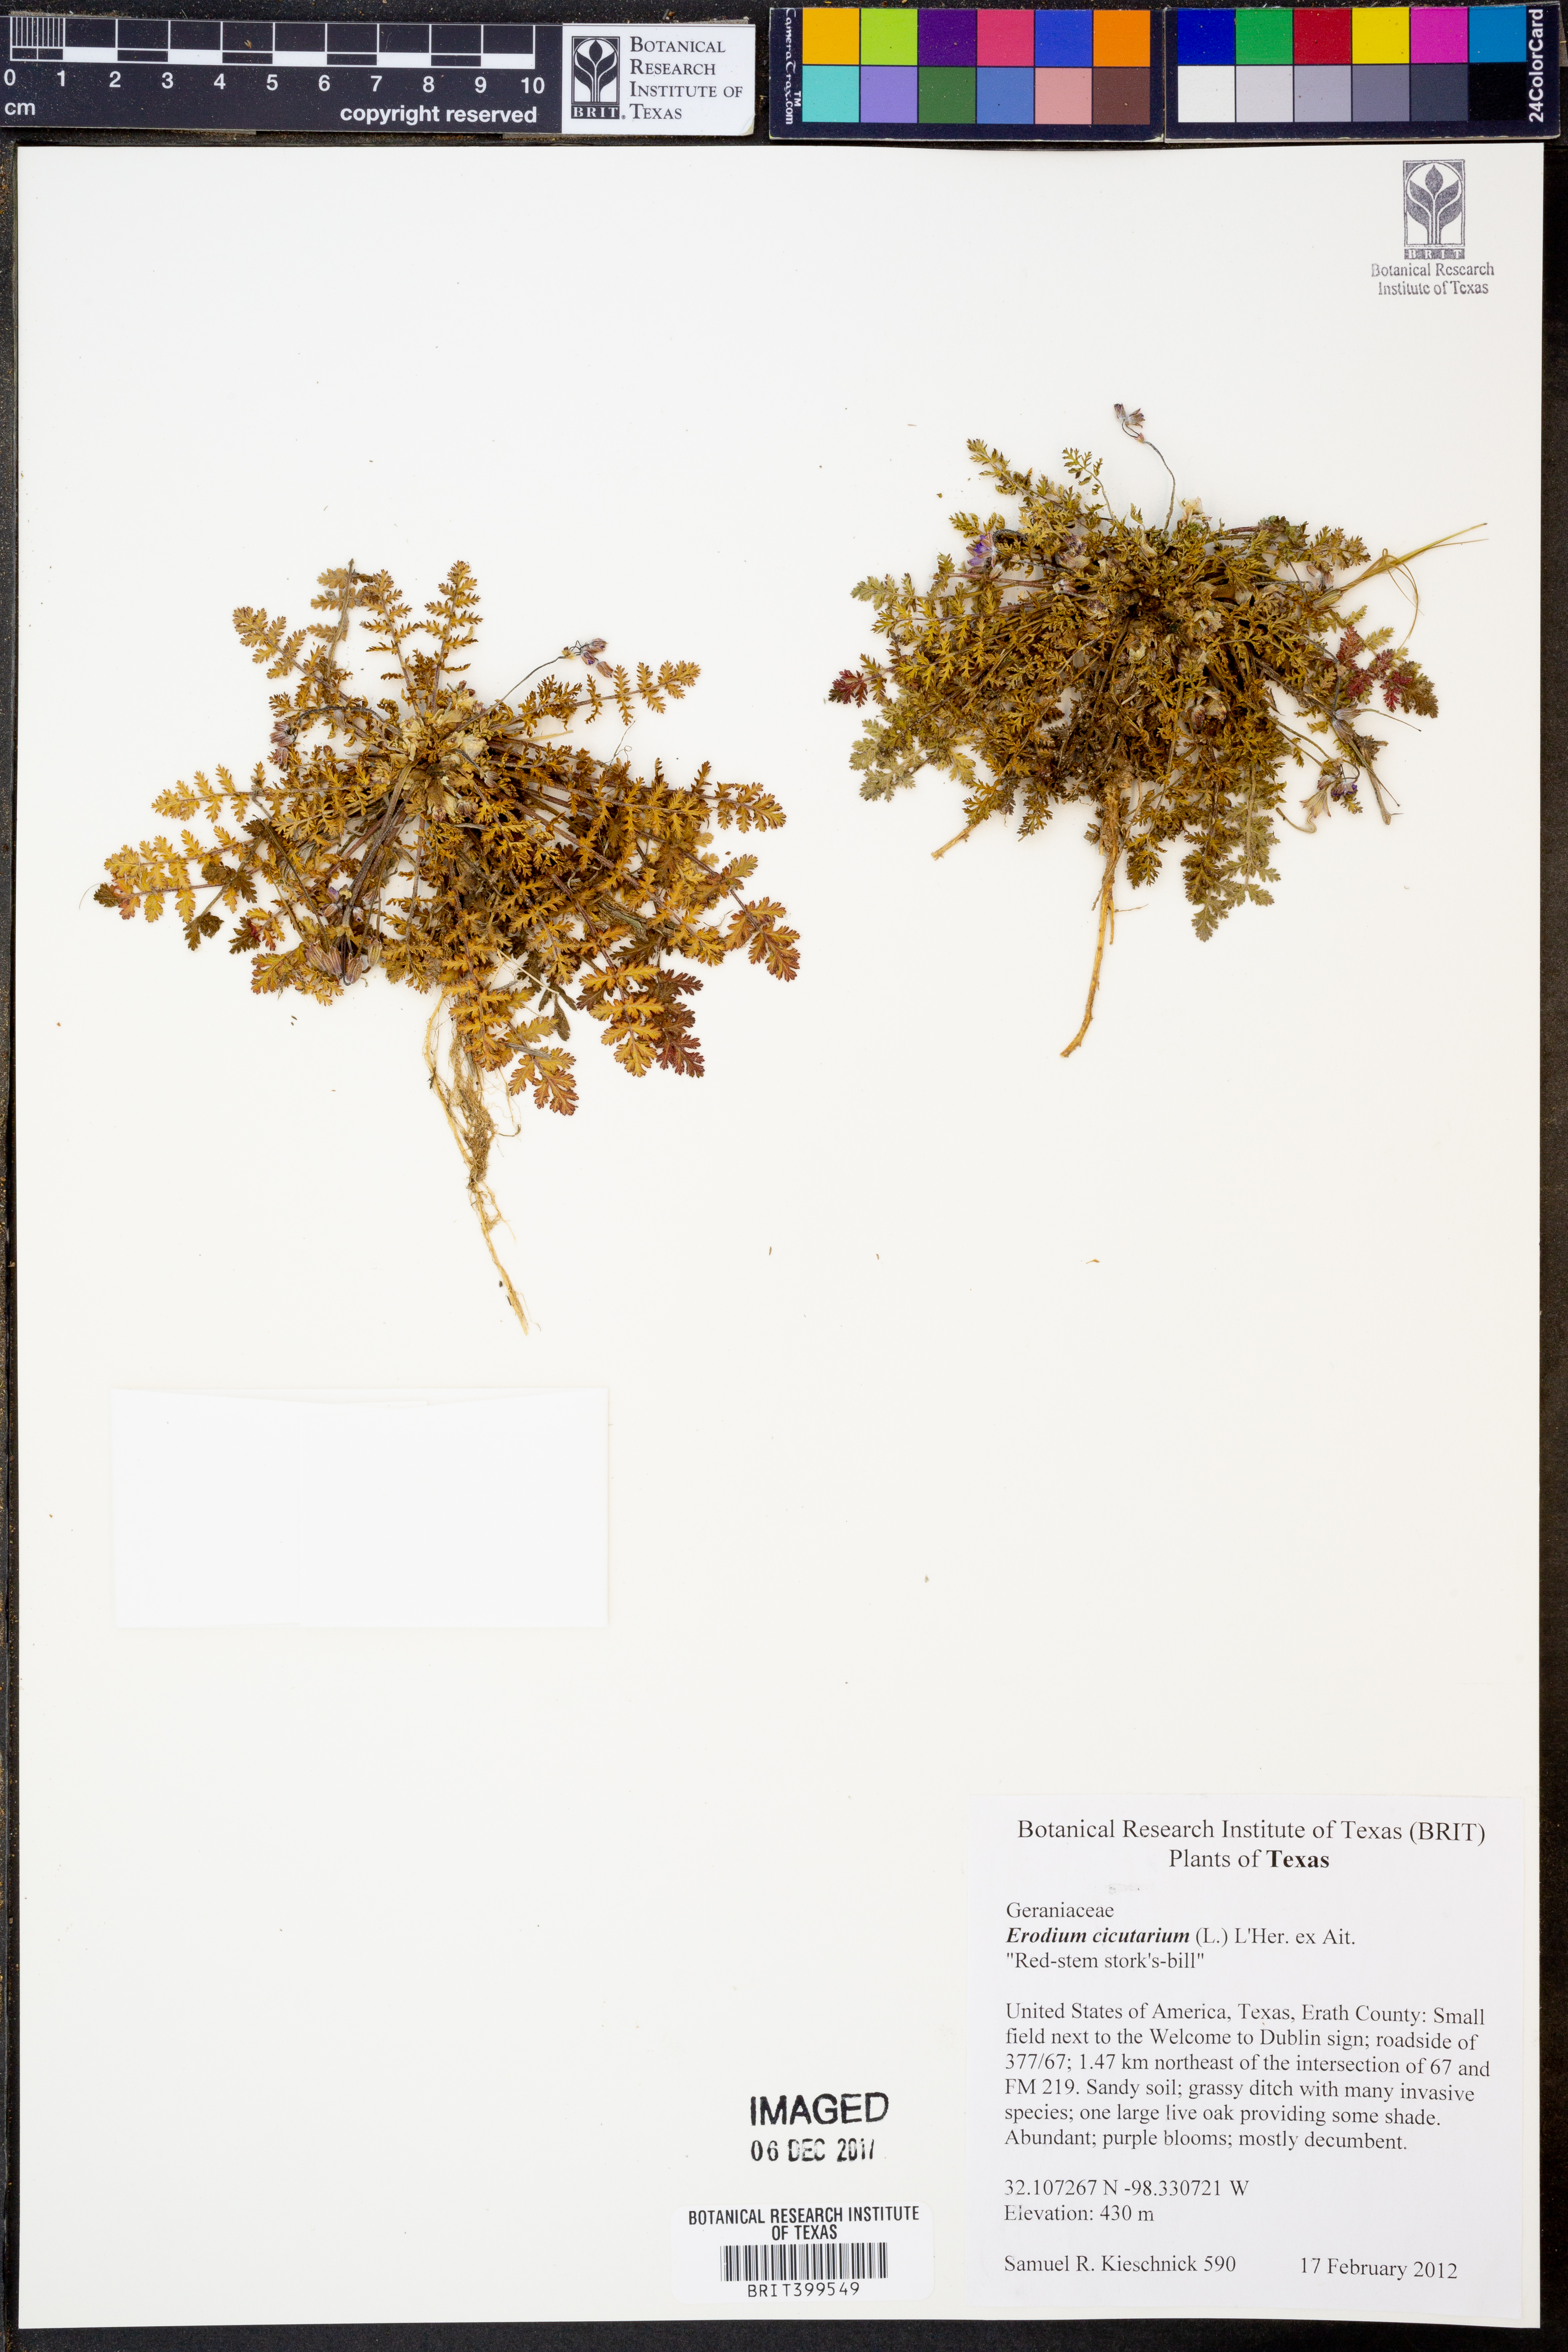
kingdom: Plantae
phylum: Tracheophyta
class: Magnoliopsida
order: Geraniales
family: Geraniaceae
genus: Erodium
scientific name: Erodium cicutarium
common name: Common stork's-bill
